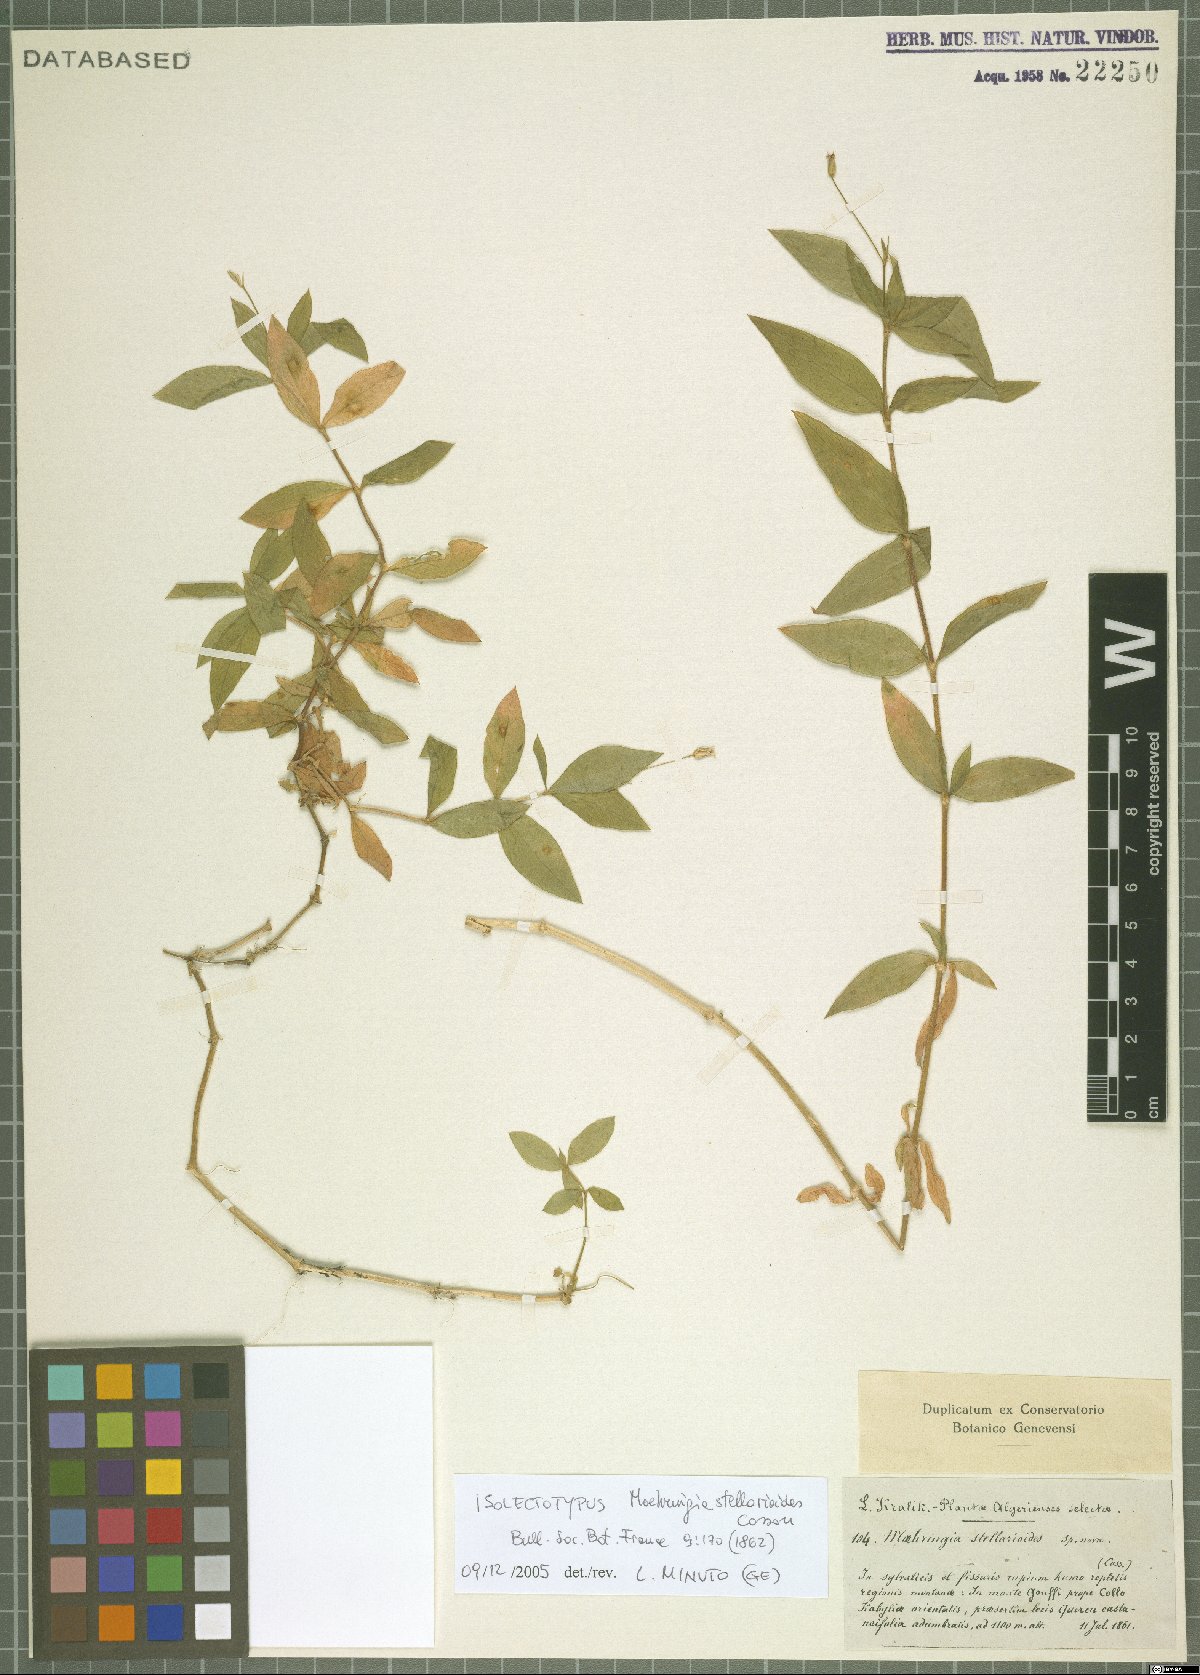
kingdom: Plantae
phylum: Tracheophyta
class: Magnoliopsida
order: Caryophyllales
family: Caryophyllaceae
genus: Moehringia
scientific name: Moehringia stellarioides
